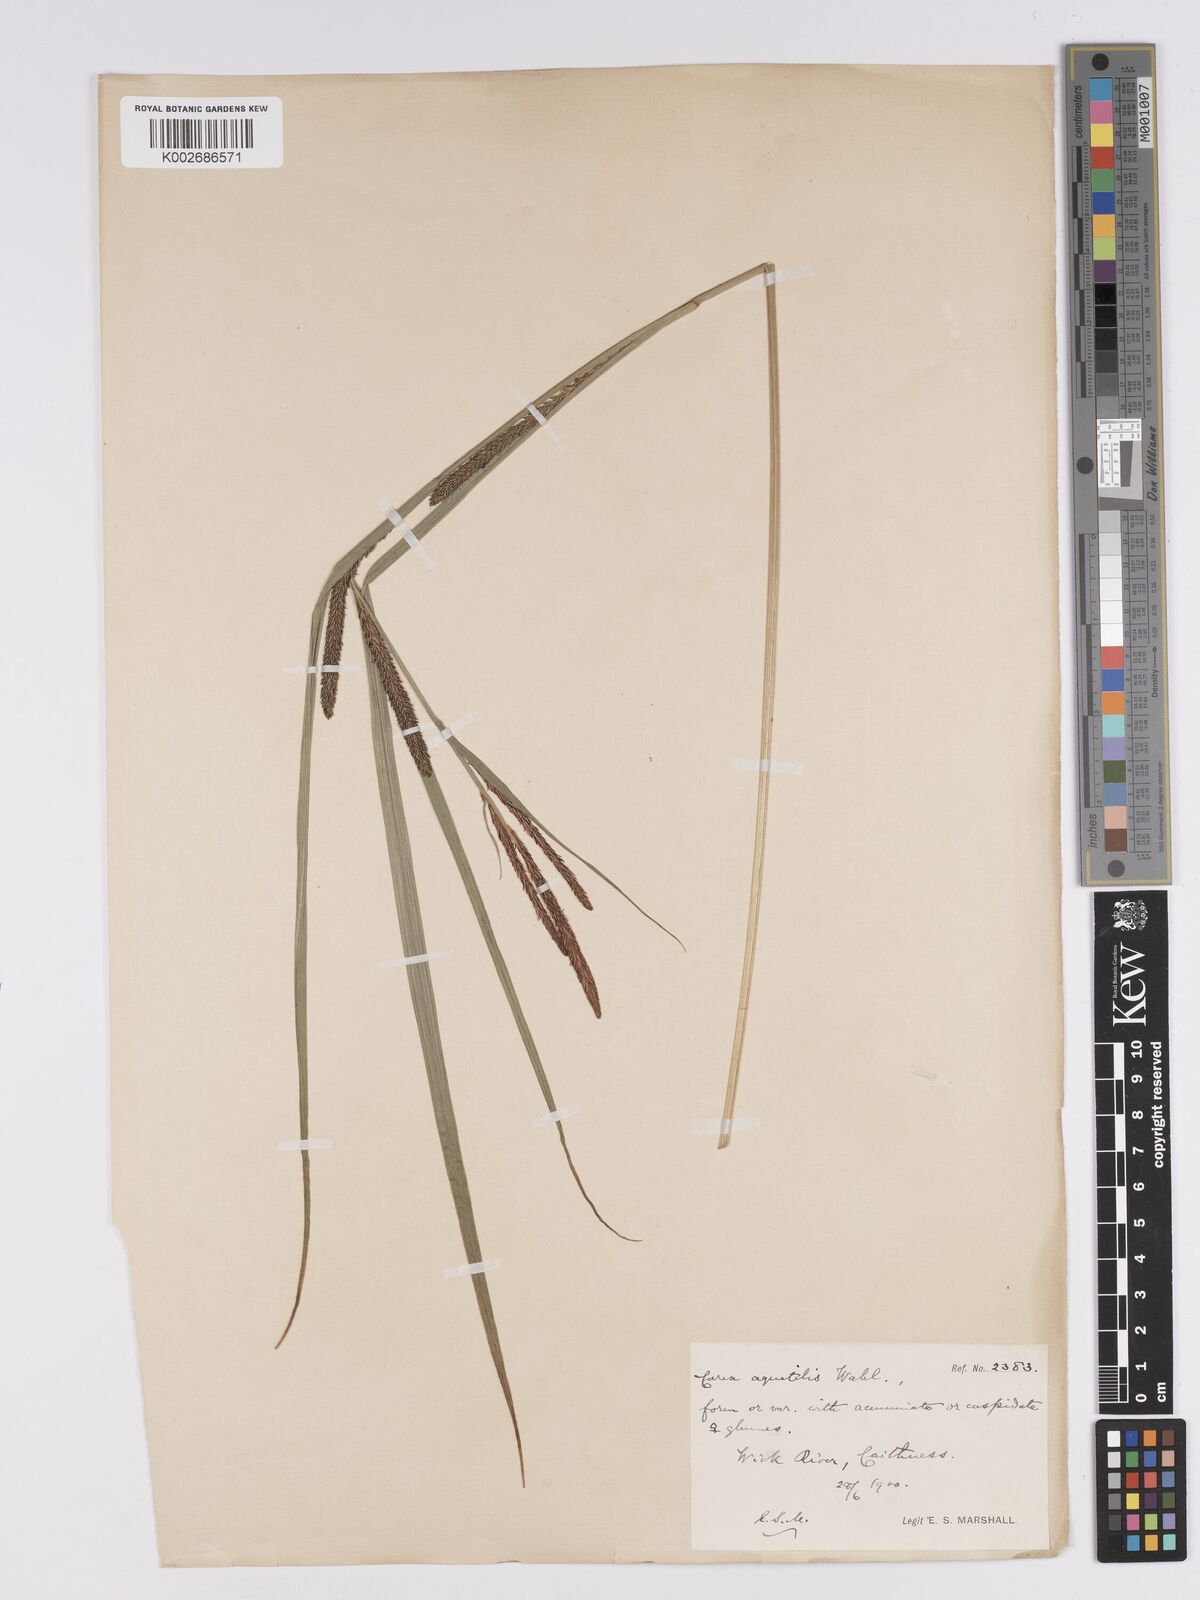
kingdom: Plantae
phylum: Tracheophyta
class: Liliopsida
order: Poales
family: Cyperaceae
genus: Carex
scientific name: Carex aquatilis
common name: Water sedge
